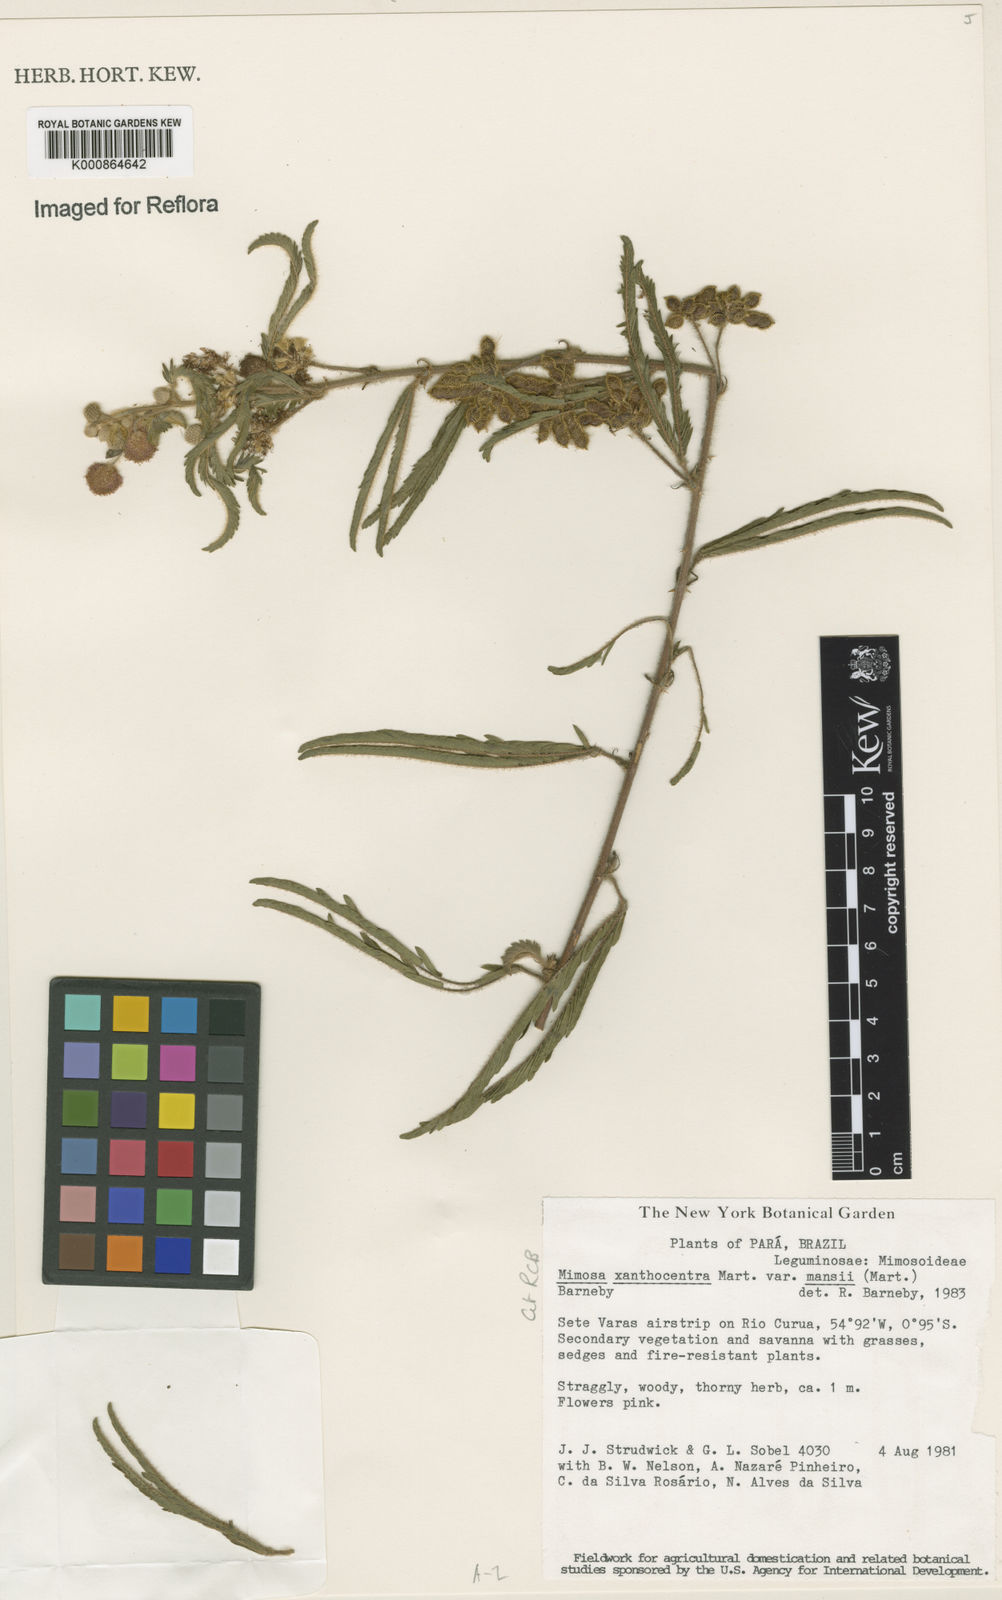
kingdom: Plantae
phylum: Tracheophyta
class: Magnoliopsida
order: Fabales
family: Fabaceae
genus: Mimosa
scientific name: Mimosa xanthocentra
